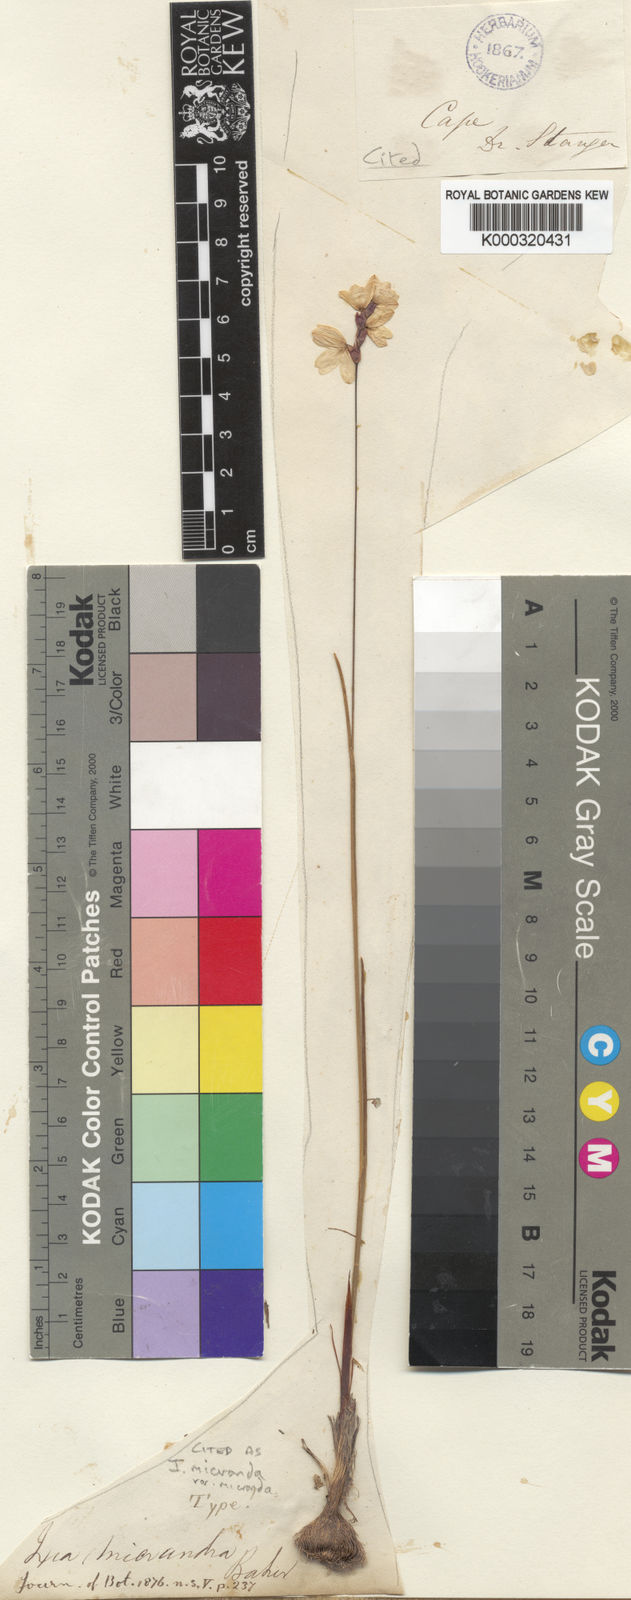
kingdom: Plantae
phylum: Tracheophyta
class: Liliopsida
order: Asparagales
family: Iridaceae
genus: Ixia
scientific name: Ixia micrandra
